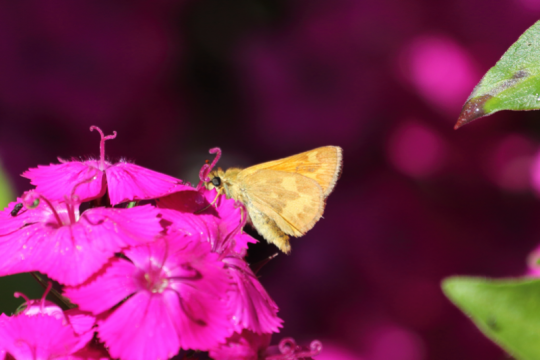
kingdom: Animalia
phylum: Arthropoda
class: Insecta
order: Lepidoptera
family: Hesperiidae
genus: Ochlodes
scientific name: Ochlodes sylvanoides
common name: Woodland Skipper
